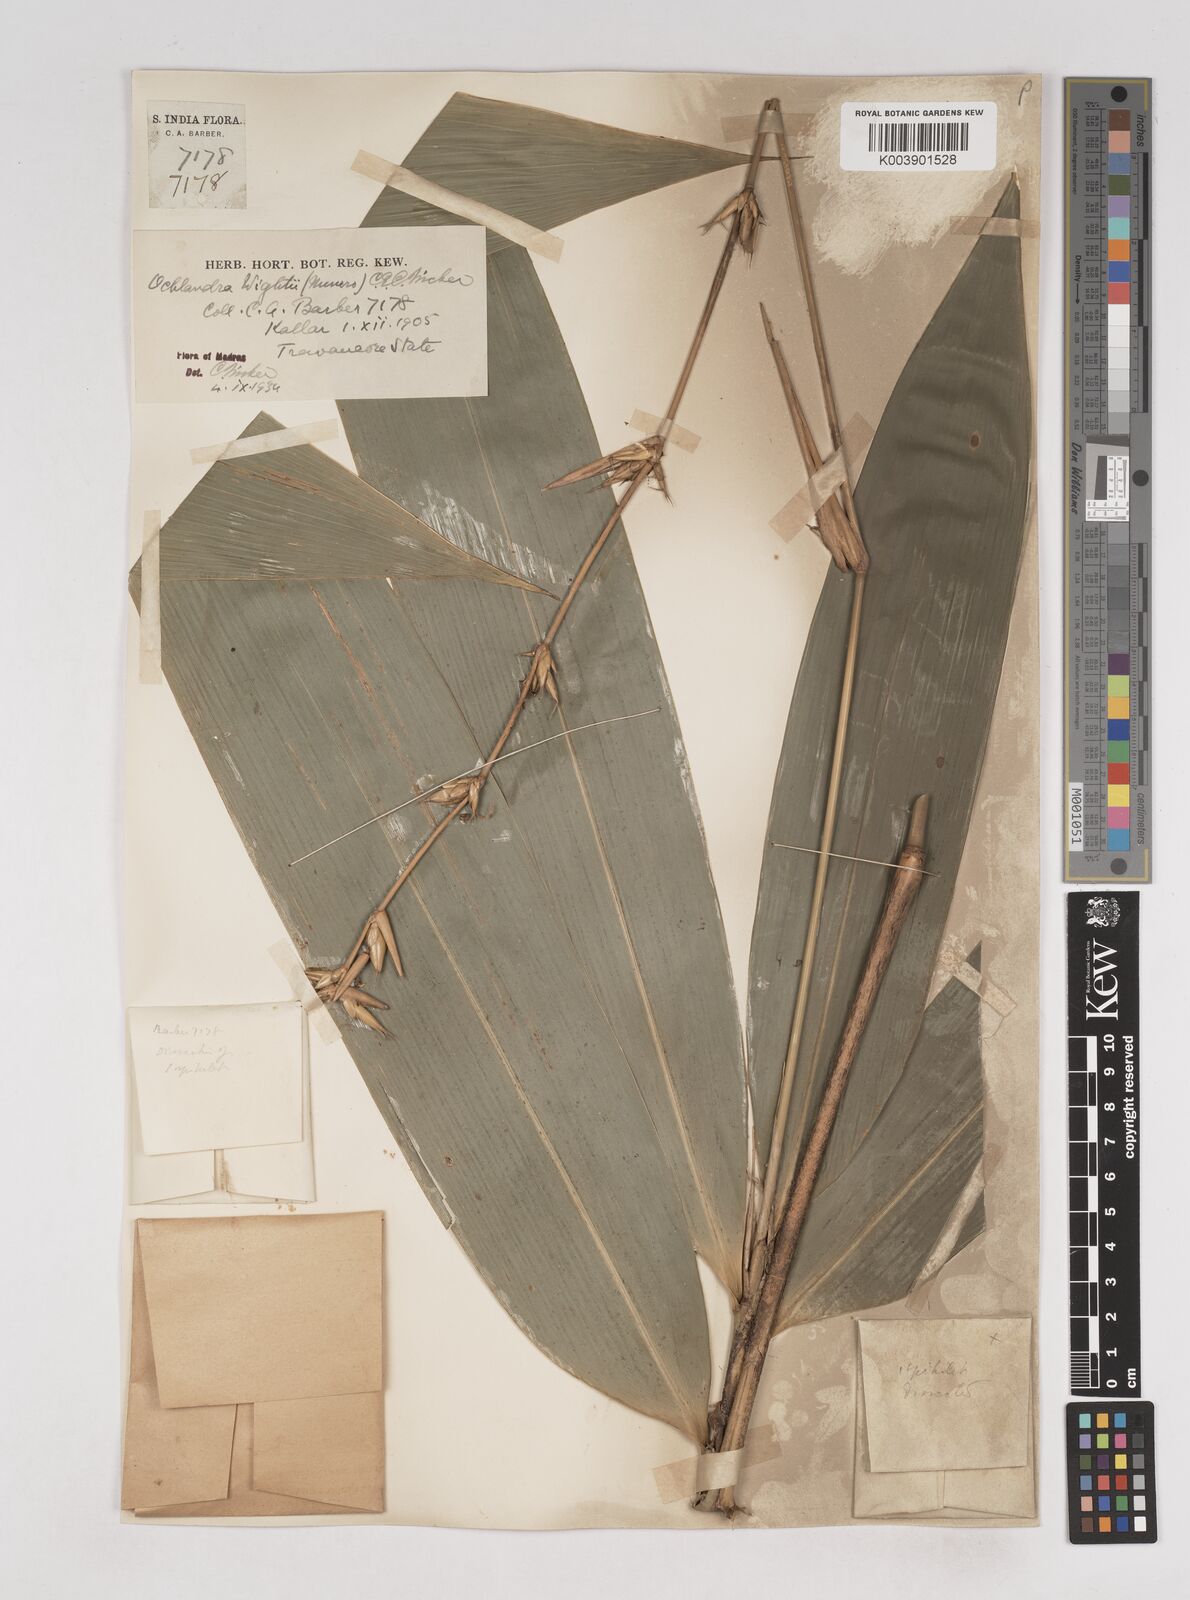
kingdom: Plantae
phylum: Tracheophyta
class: Liliopsida
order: Poales
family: Poaceae
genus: Ochlandra
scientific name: Ochlandra wightii
